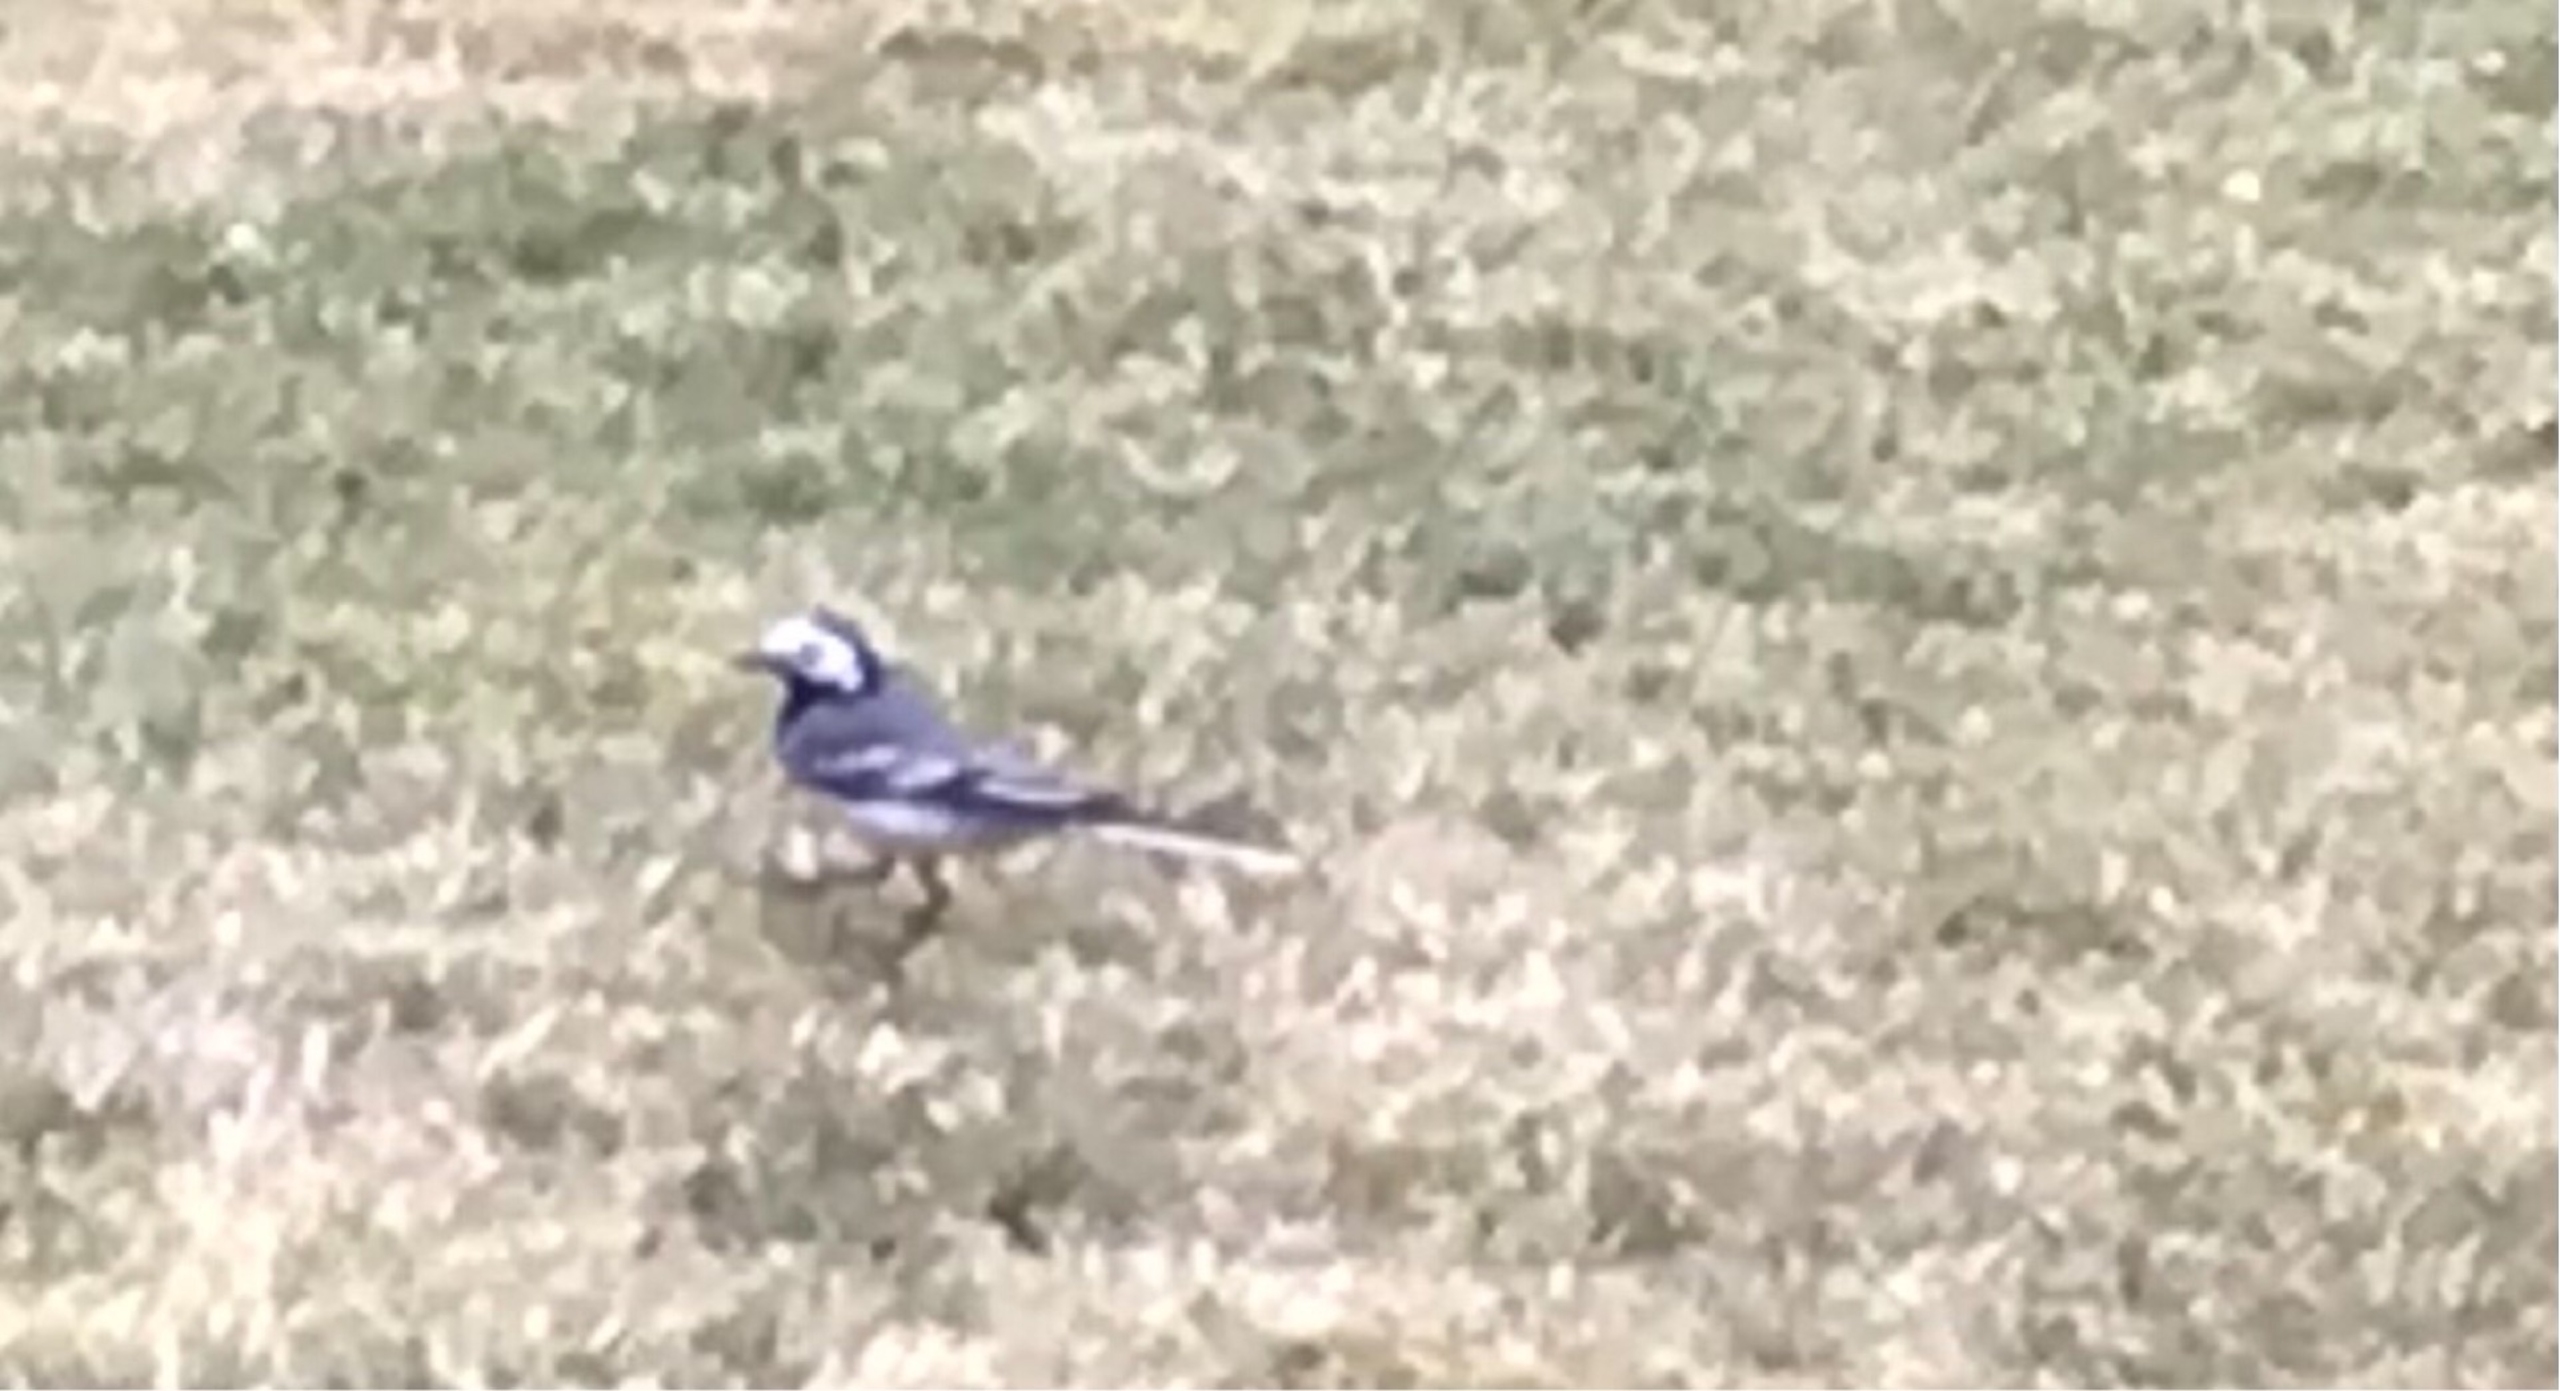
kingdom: Animalia
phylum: Chordata
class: Aves
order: Passeriformes
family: Motacillidae
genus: Motacilla
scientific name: Motacilla alba
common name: Hvid vipstjert
